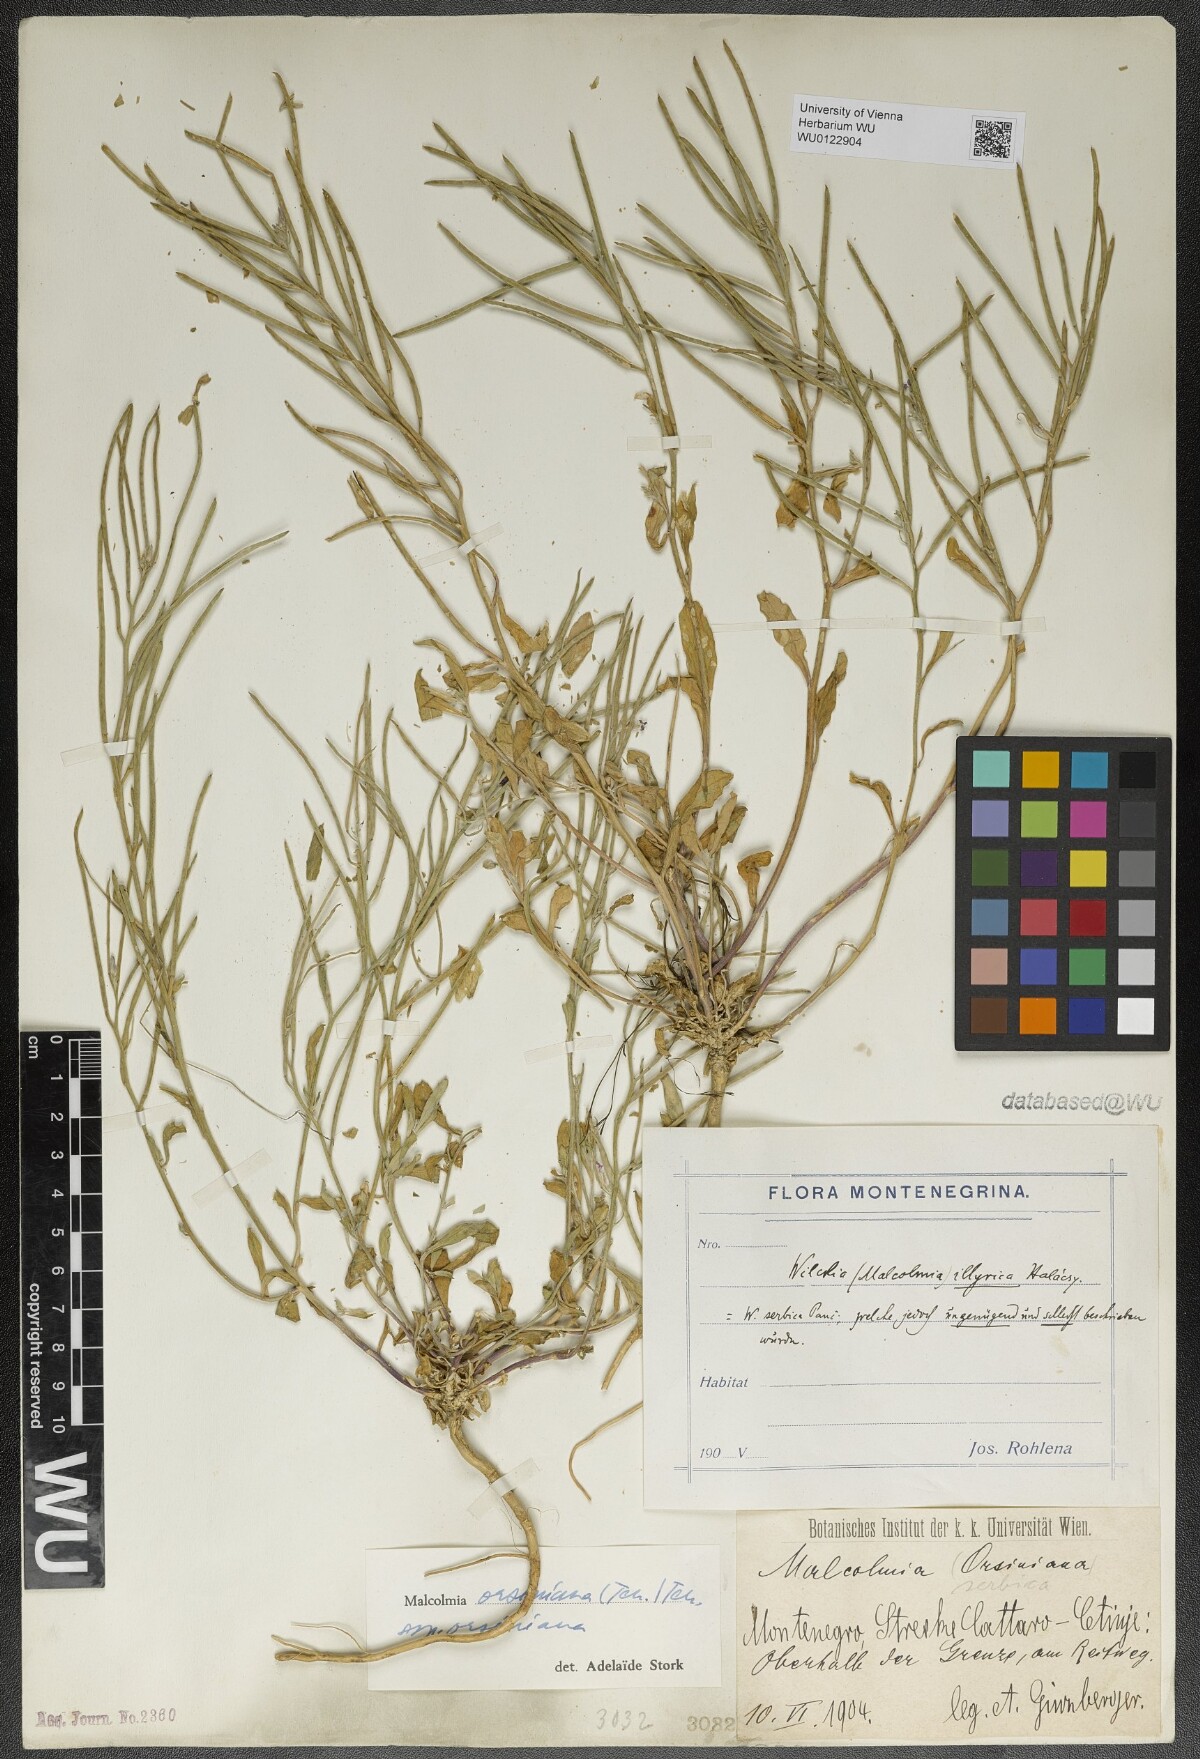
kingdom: Plantae
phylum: Tracheophyta
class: Magnoliopsida
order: Brassicales
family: Brassicaceae
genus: Malcolmia
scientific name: Malcolmia orsiniana
